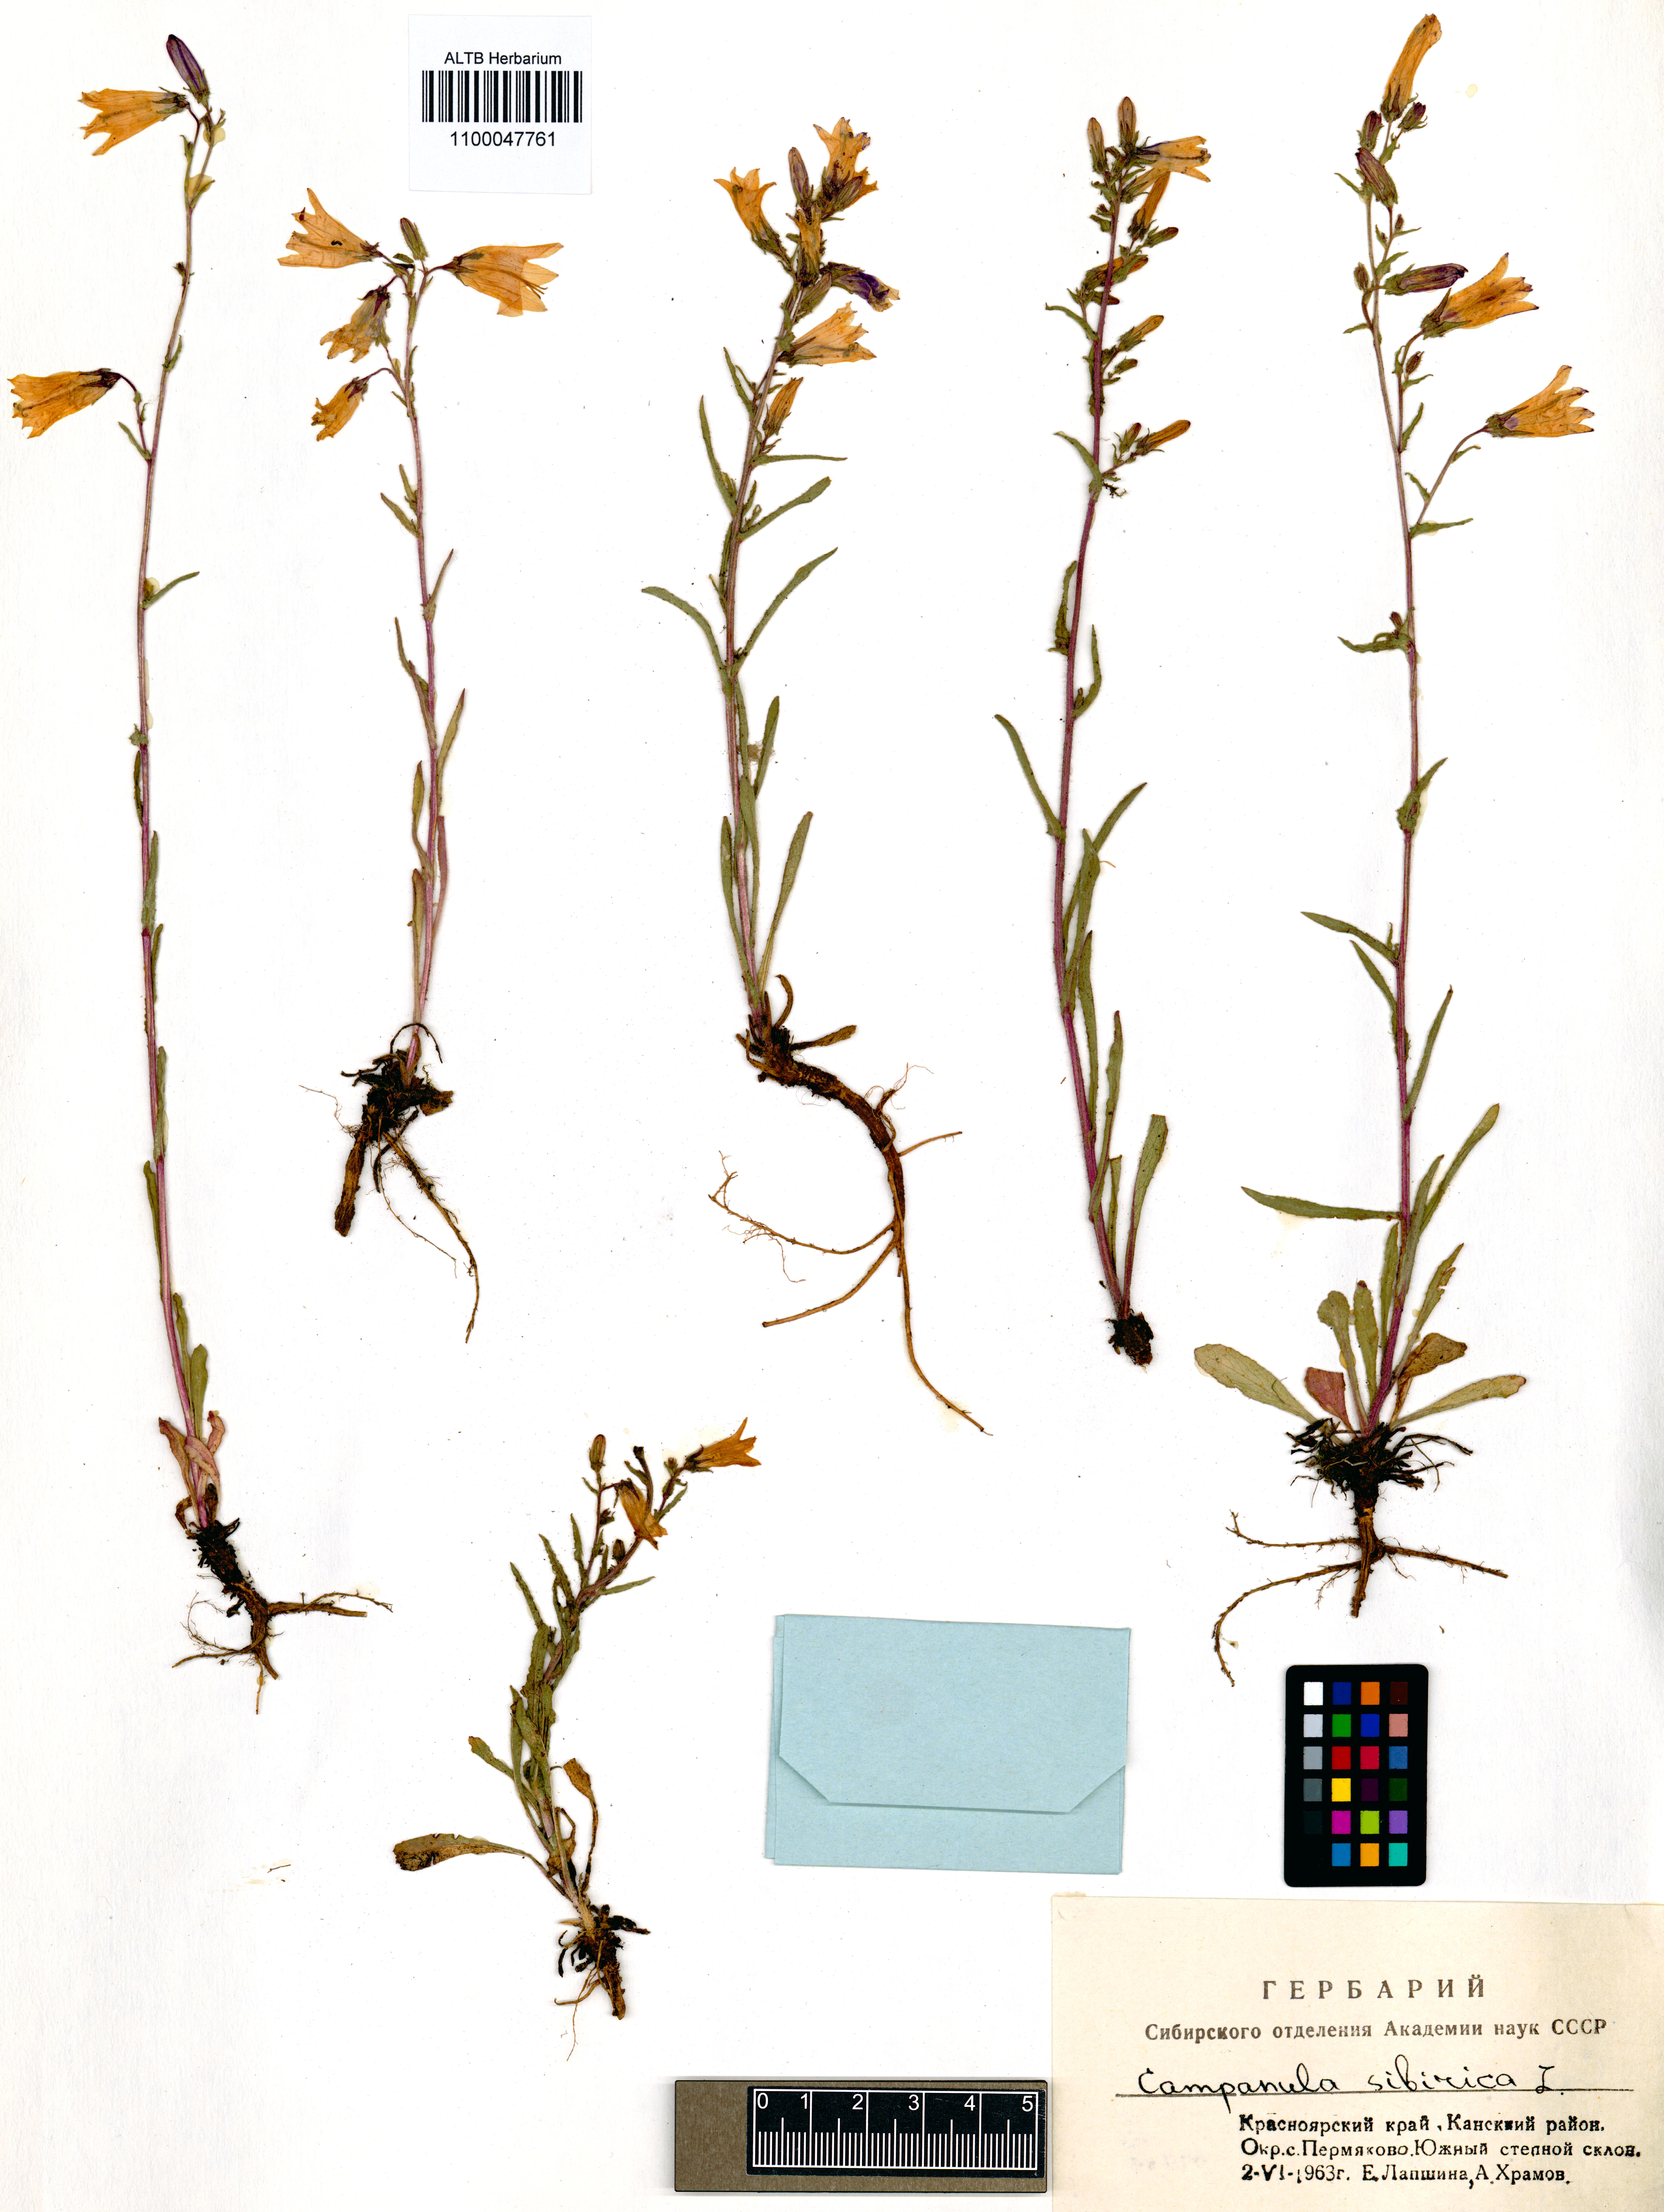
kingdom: Plantae
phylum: Tracheophyta
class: Magnoliopsida
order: Asterales
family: Campanulaceae
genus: Campanula
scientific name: Campanula sibirica
